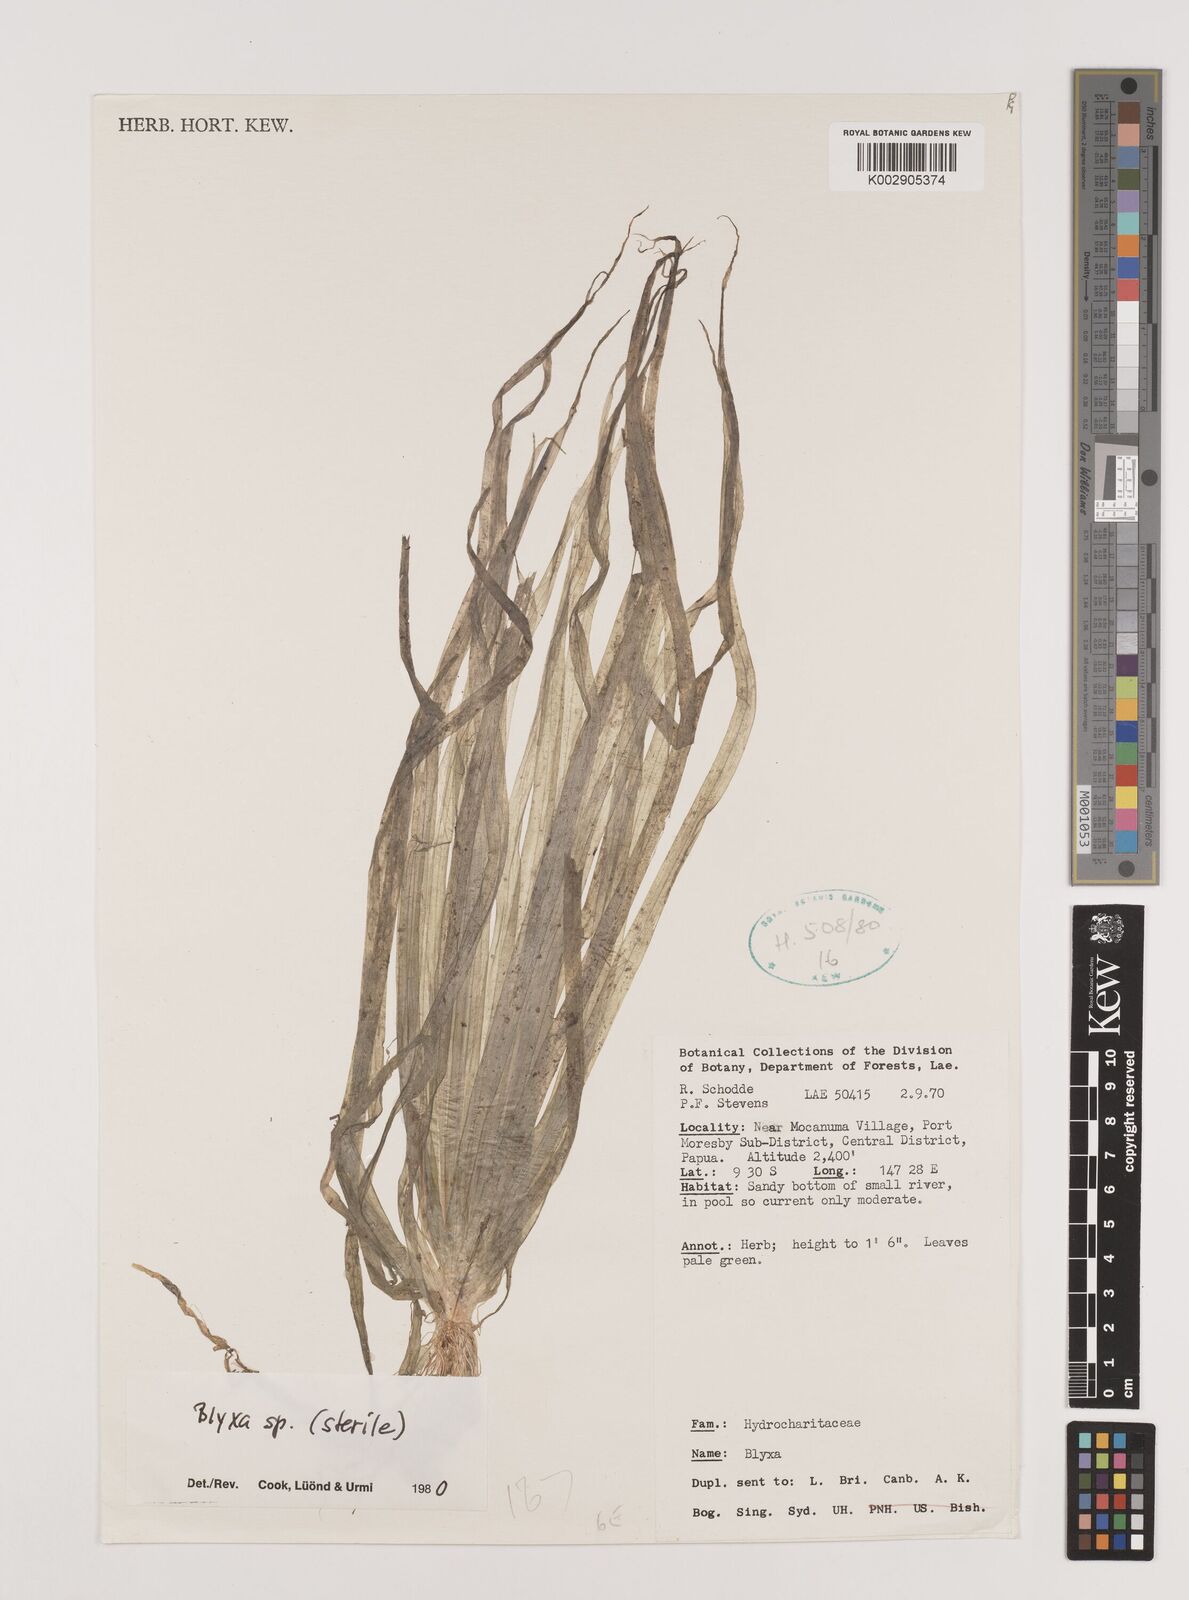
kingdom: Plantae
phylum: Tracheophyta
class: Liliopsida
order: Alismatales
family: Hydrocharitaceae
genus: Blyxa
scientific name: Blyxa
